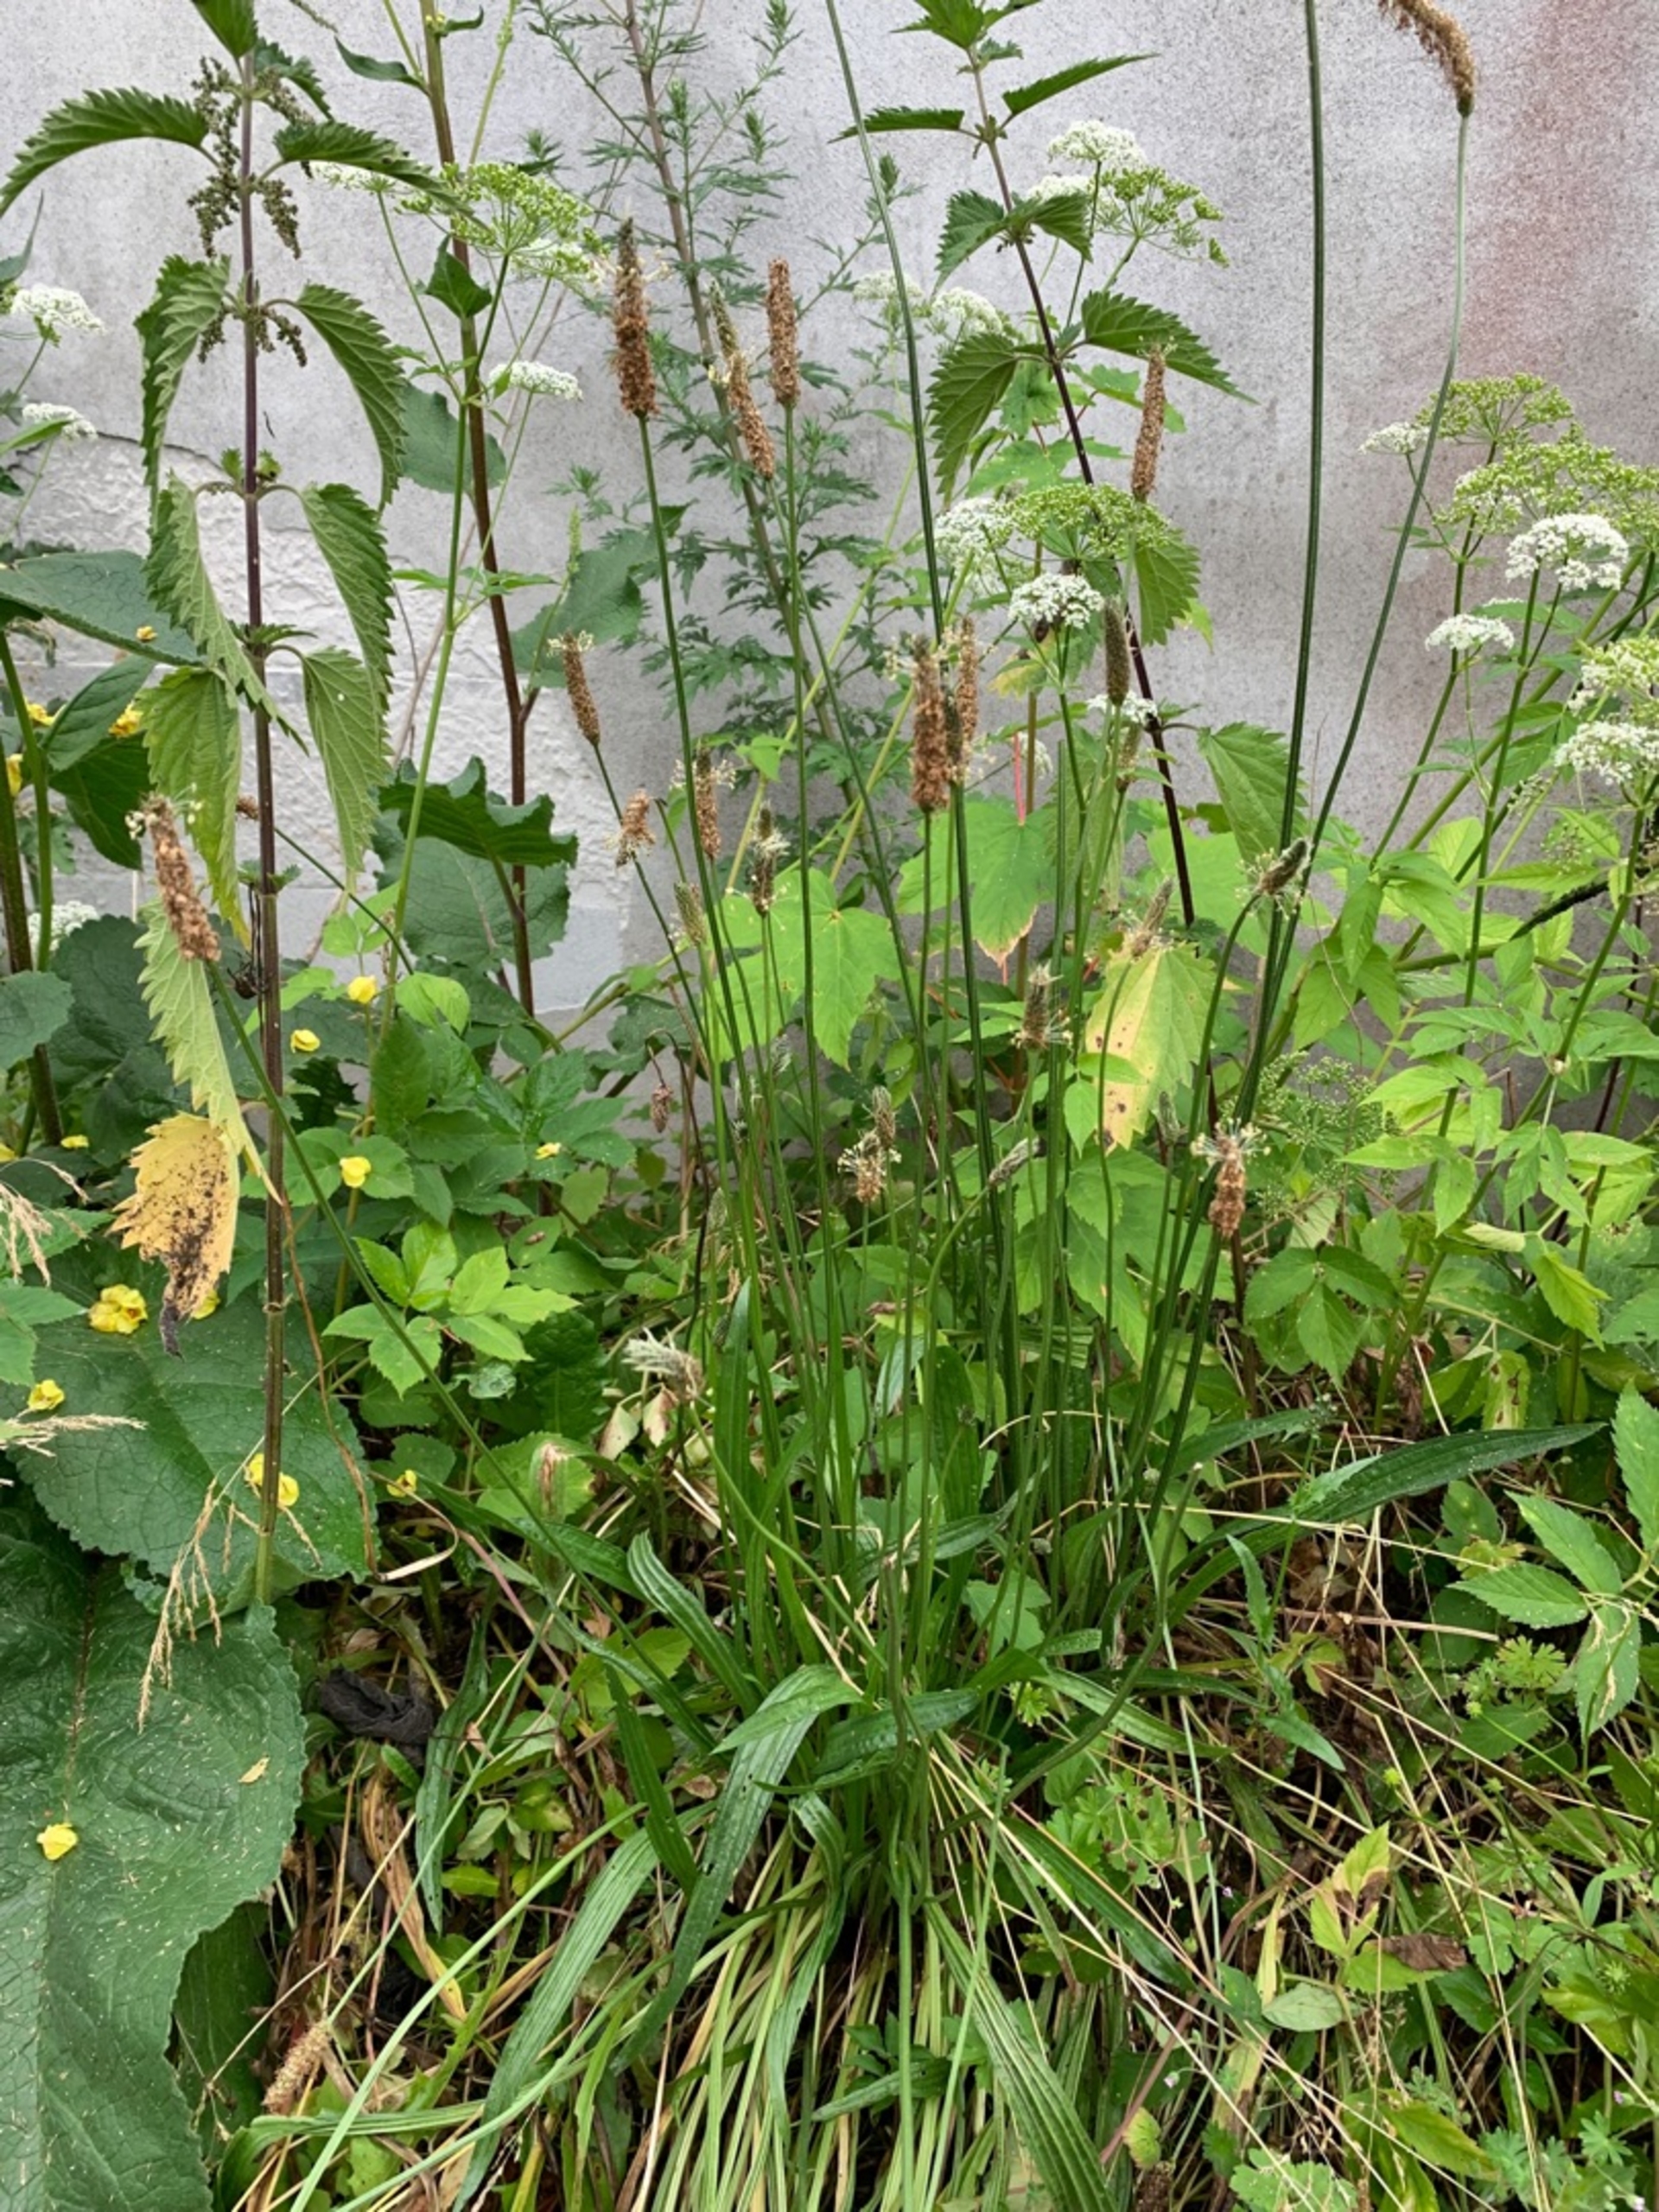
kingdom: Plantae
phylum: Tracheophyta
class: Magnoliopsida
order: Lamiales
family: Plantaginaceae
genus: Plantago
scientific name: Plantago lanceolata
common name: Lancet-vejbred
